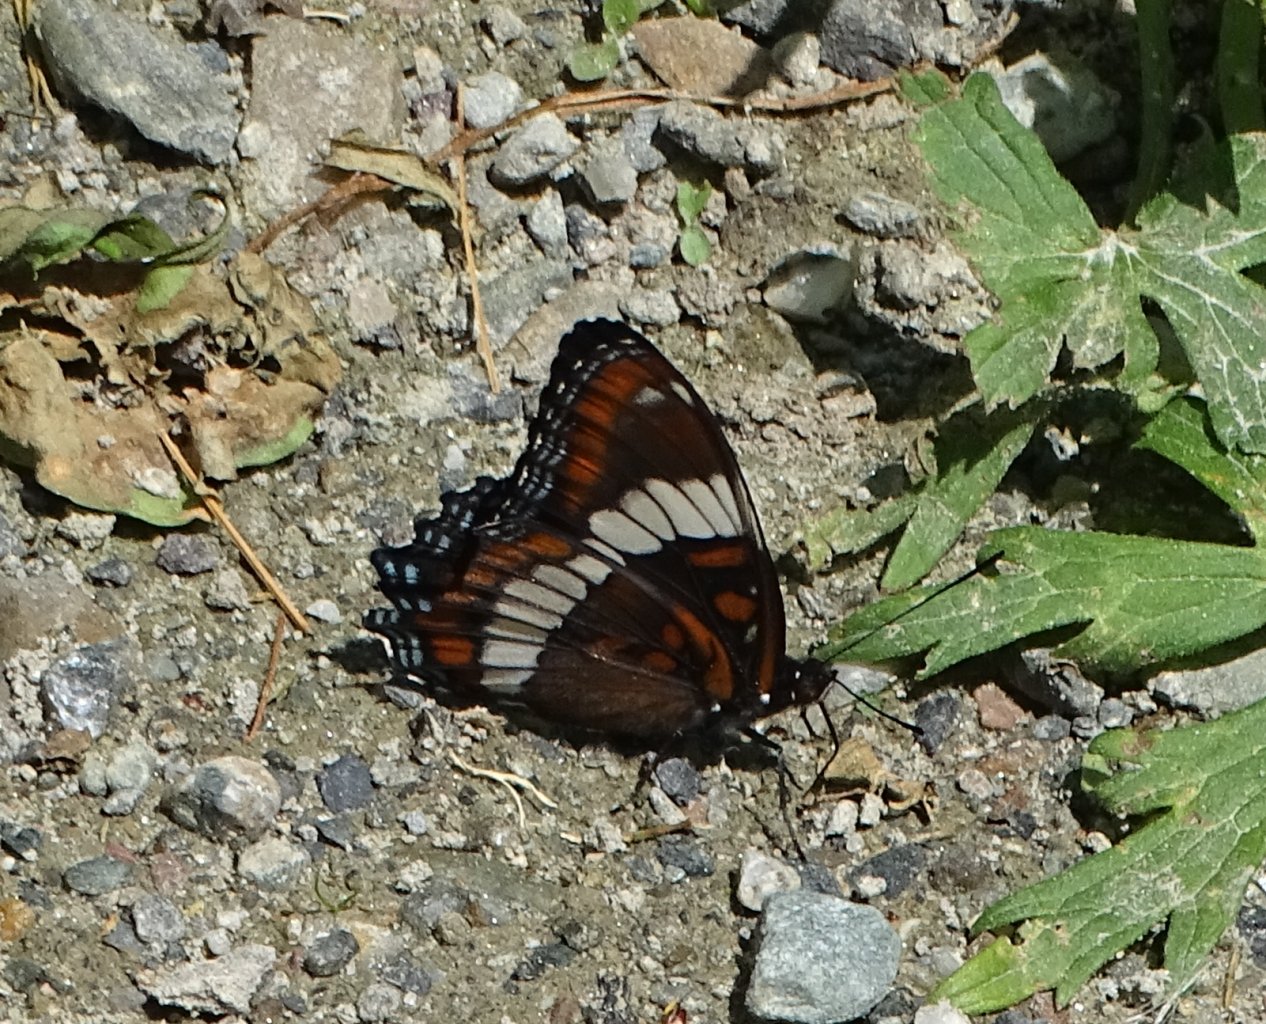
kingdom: Animalia
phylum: Arthropoda
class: Insecta
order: Lepidoptera
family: Nymphalidae
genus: Limenitis
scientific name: Limenitis arthemis
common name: Red-spotted Admiral
